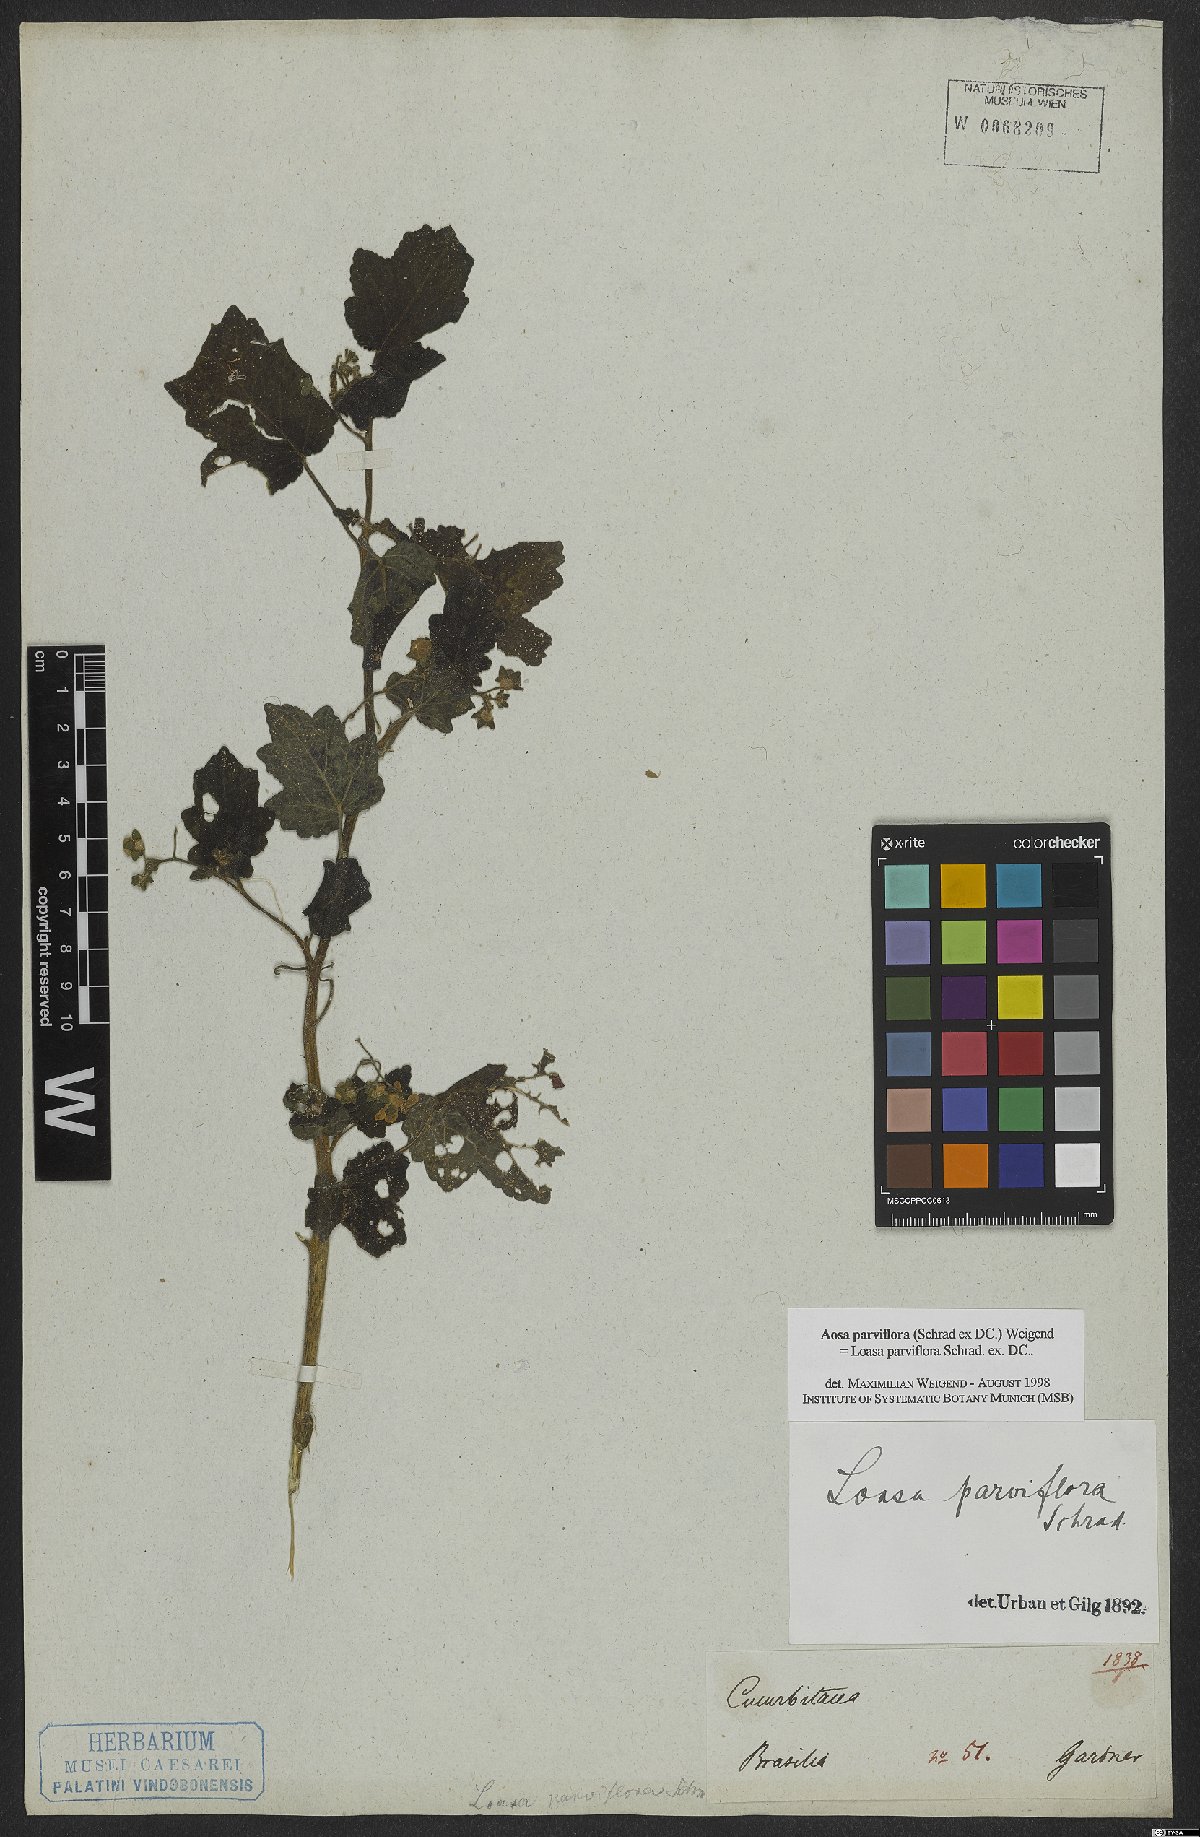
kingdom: Plantae
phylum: Tracheophyta
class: Magnoliopsida
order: Cornales
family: Loasaceae
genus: Aosa
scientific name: Aosa parviflora
